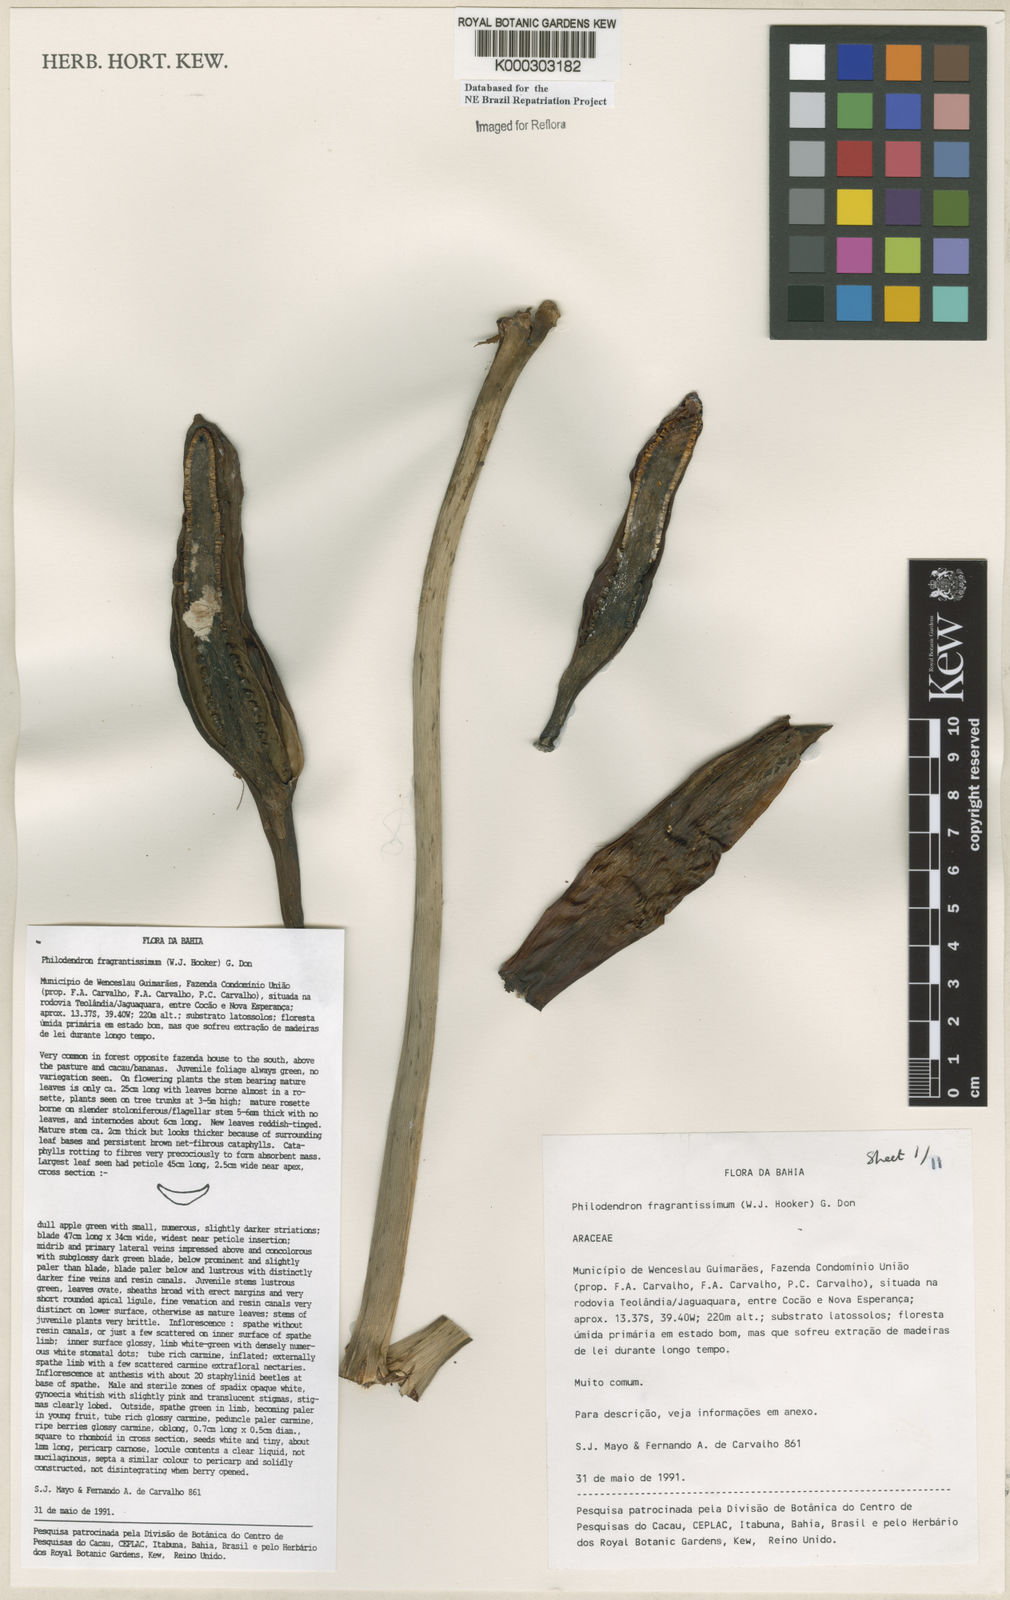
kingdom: Plantae
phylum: Tracheophyta
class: Liliopsida
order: Alismatales
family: Araceae
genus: Philodendron
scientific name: Philodendron fragrantissimum
